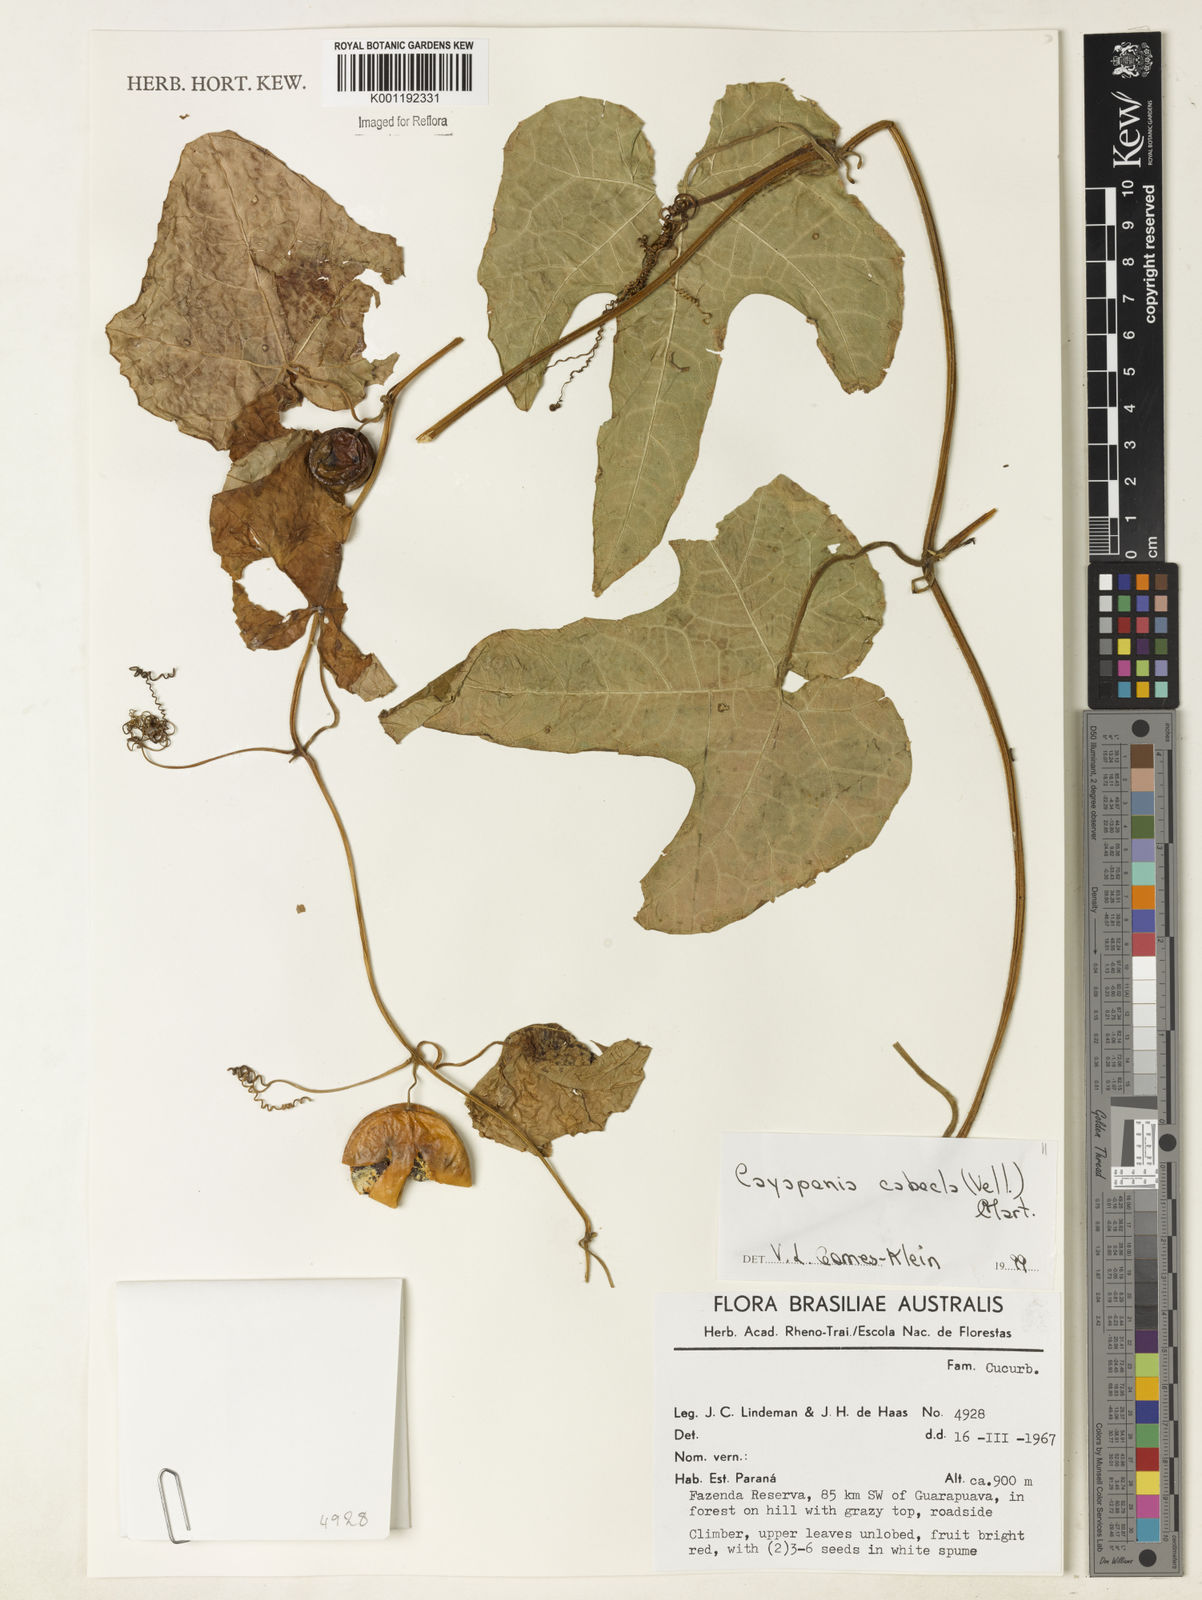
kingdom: Plantae
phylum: Tracheophyta
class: Magnoliopsida
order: Cucurbitales
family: Cucurbitaceae
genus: Cayaponia
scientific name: Cayaponia cabocla
